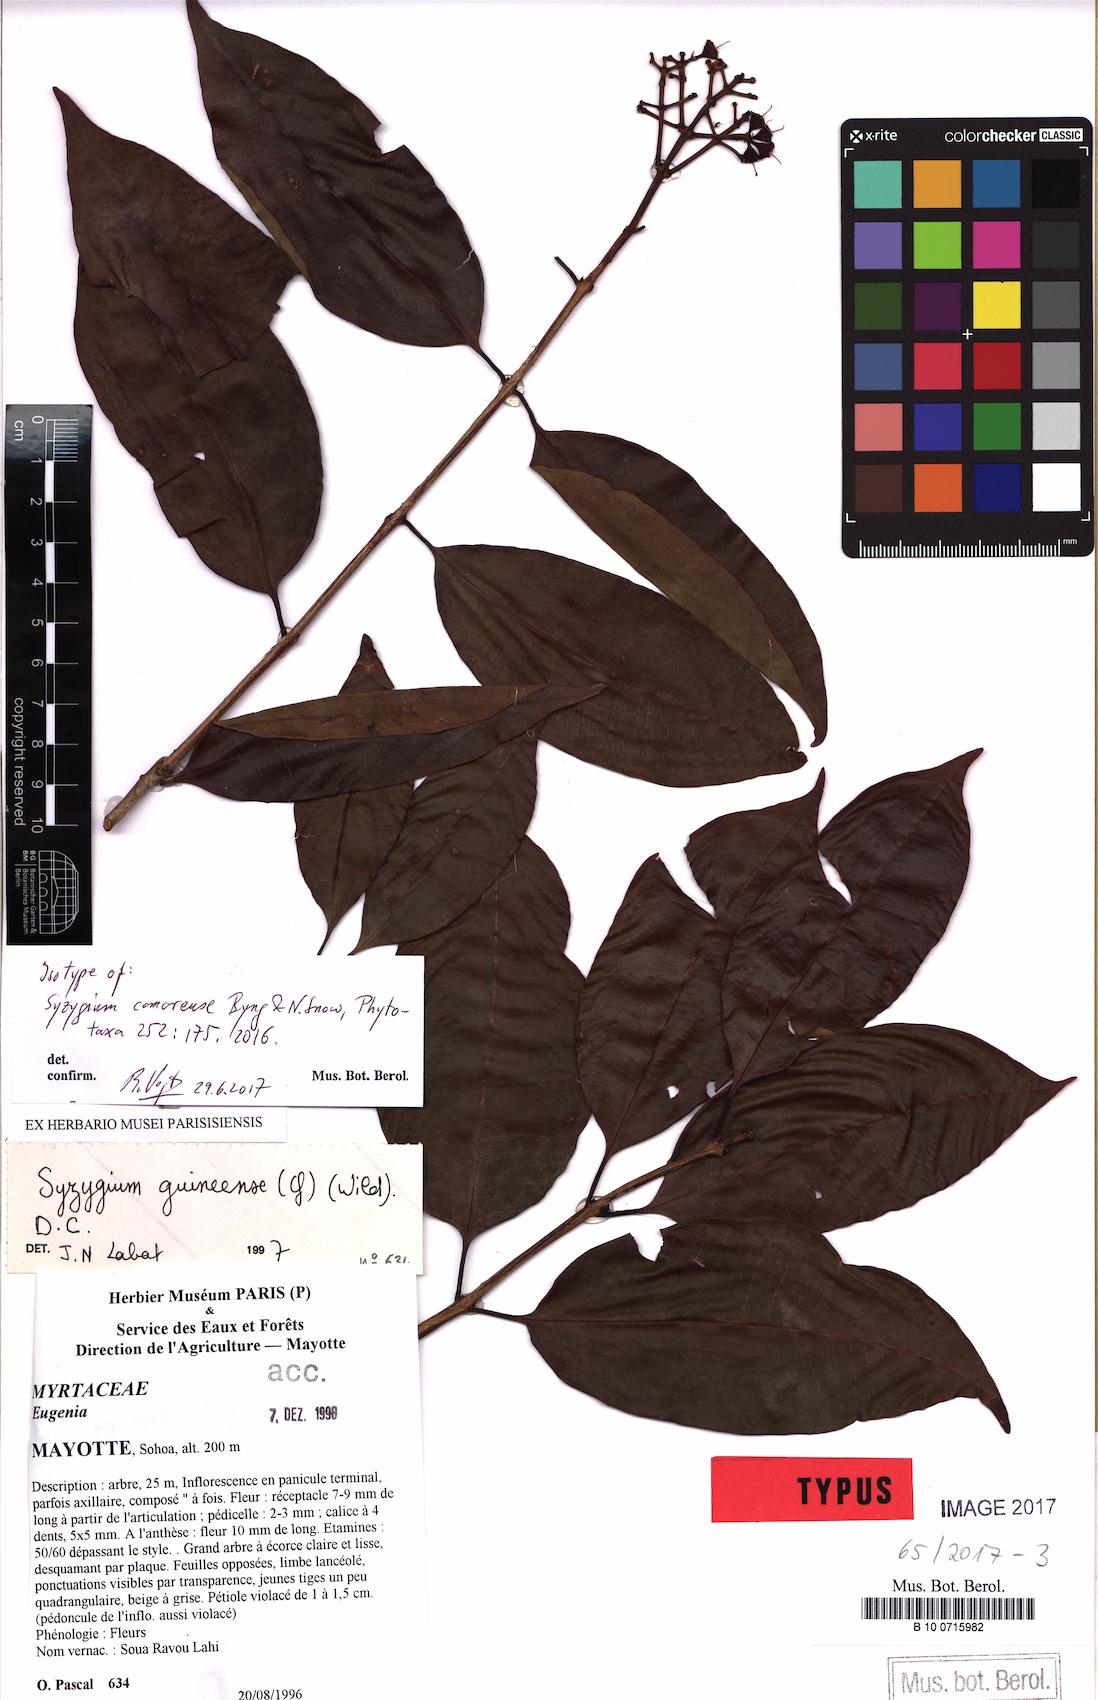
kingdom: Plantae
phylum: Tracheophyta
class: Magnoliopsida
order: Myrtales
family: Myrtaceae
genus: Syzygium
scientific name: Syzygium comorense
